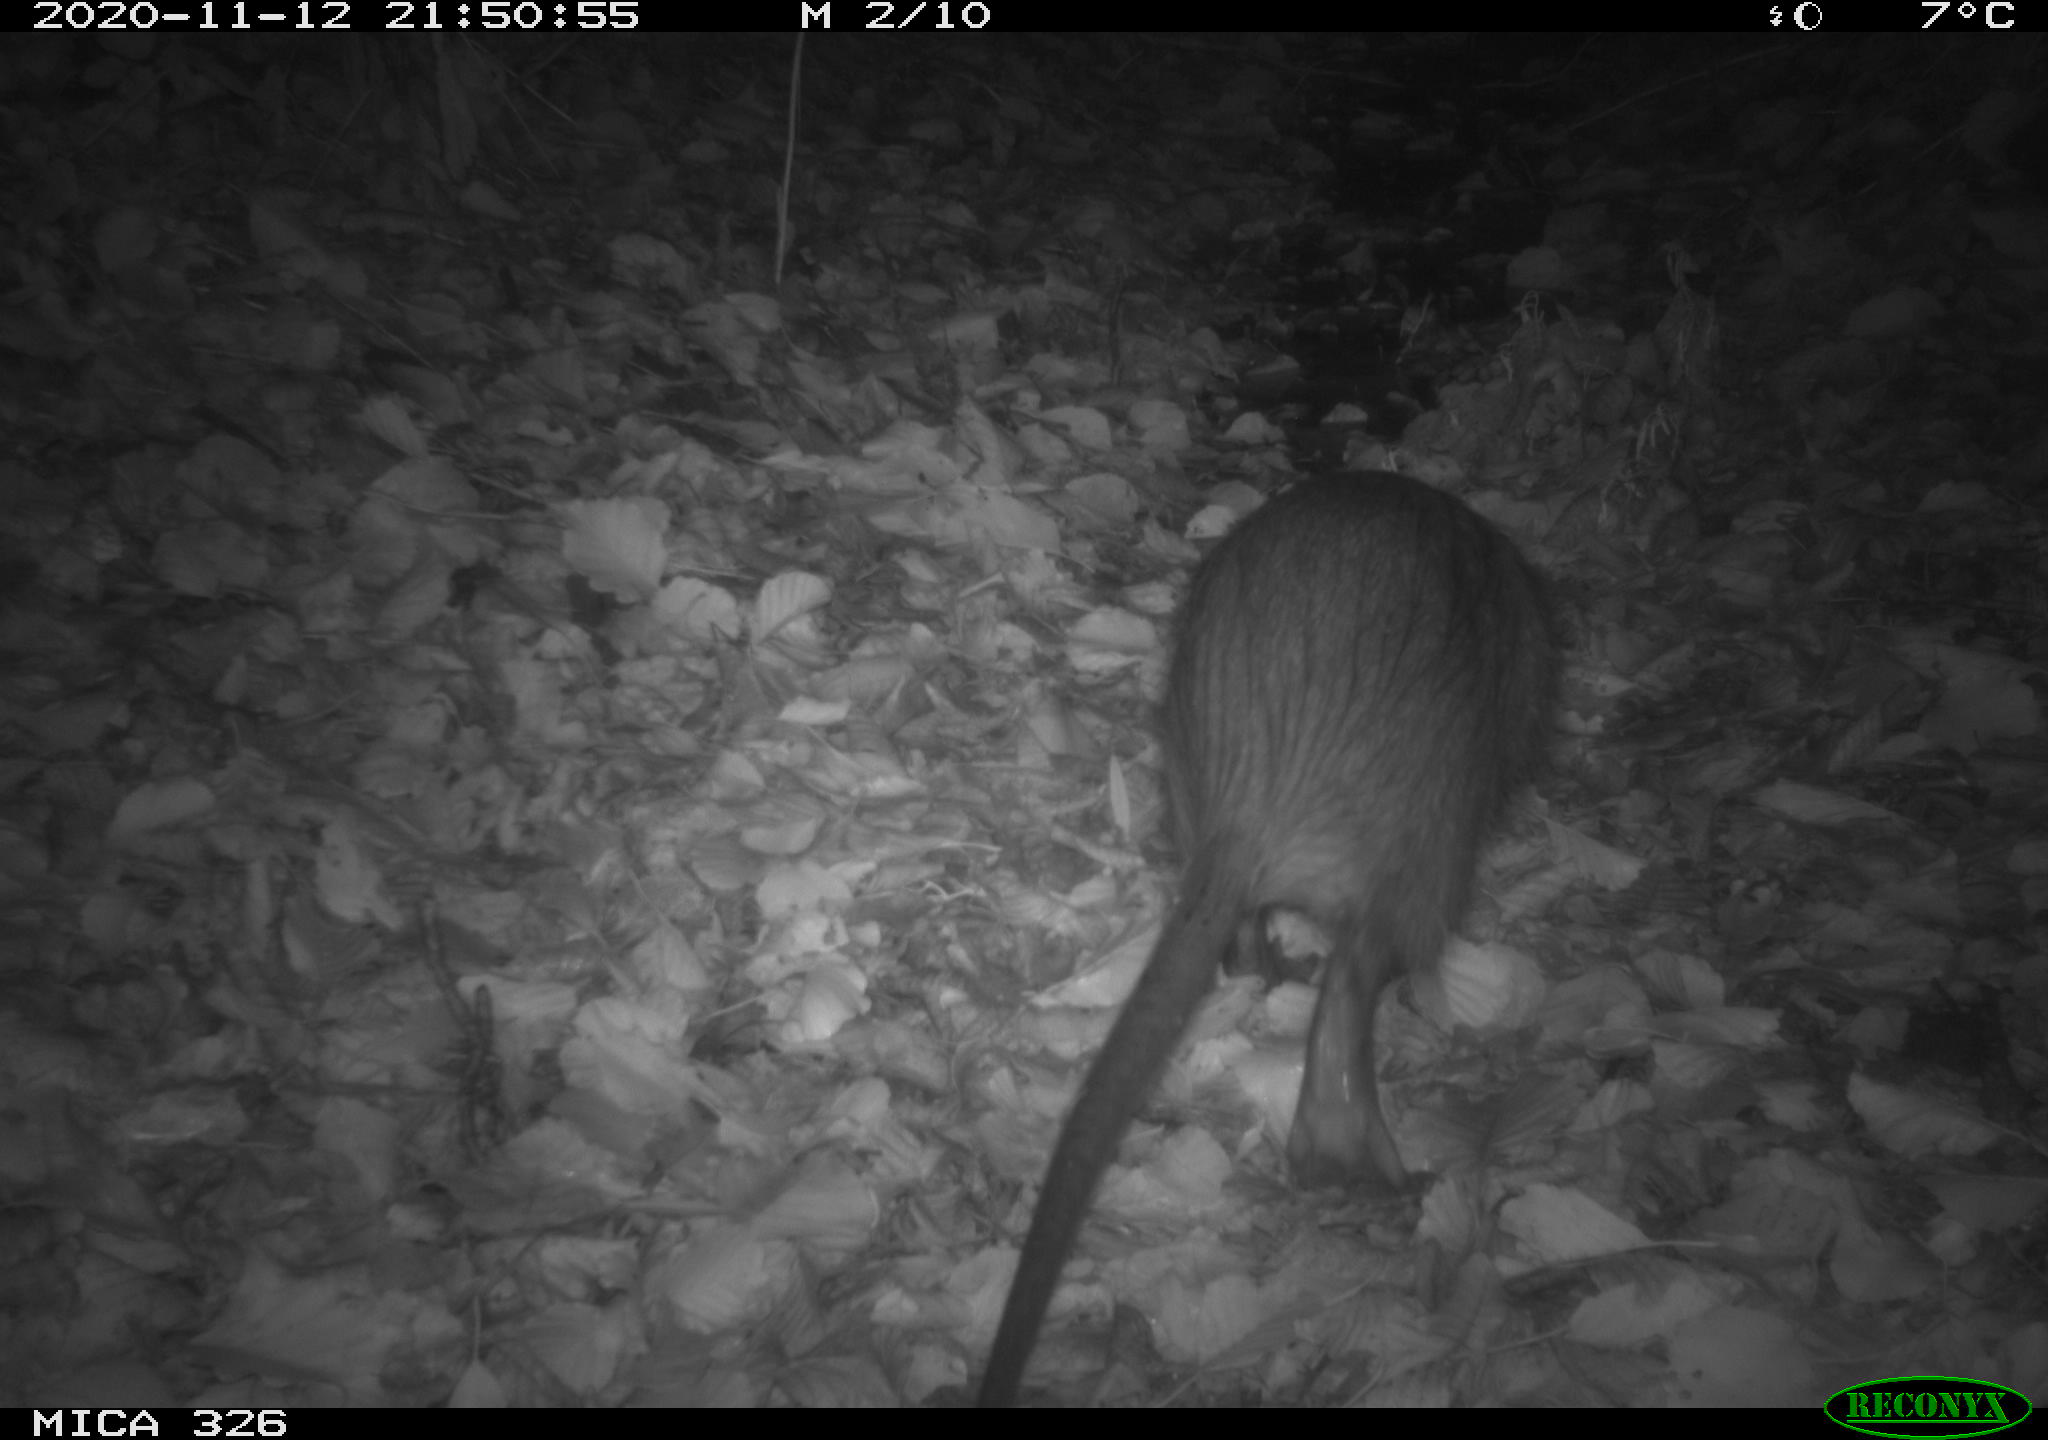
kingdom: Animalia
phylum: Chordata
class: Mammalia
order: Rodentia
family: Myocastoridae
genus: Myocastor
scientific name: Myocastor coypus
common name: Coypu
